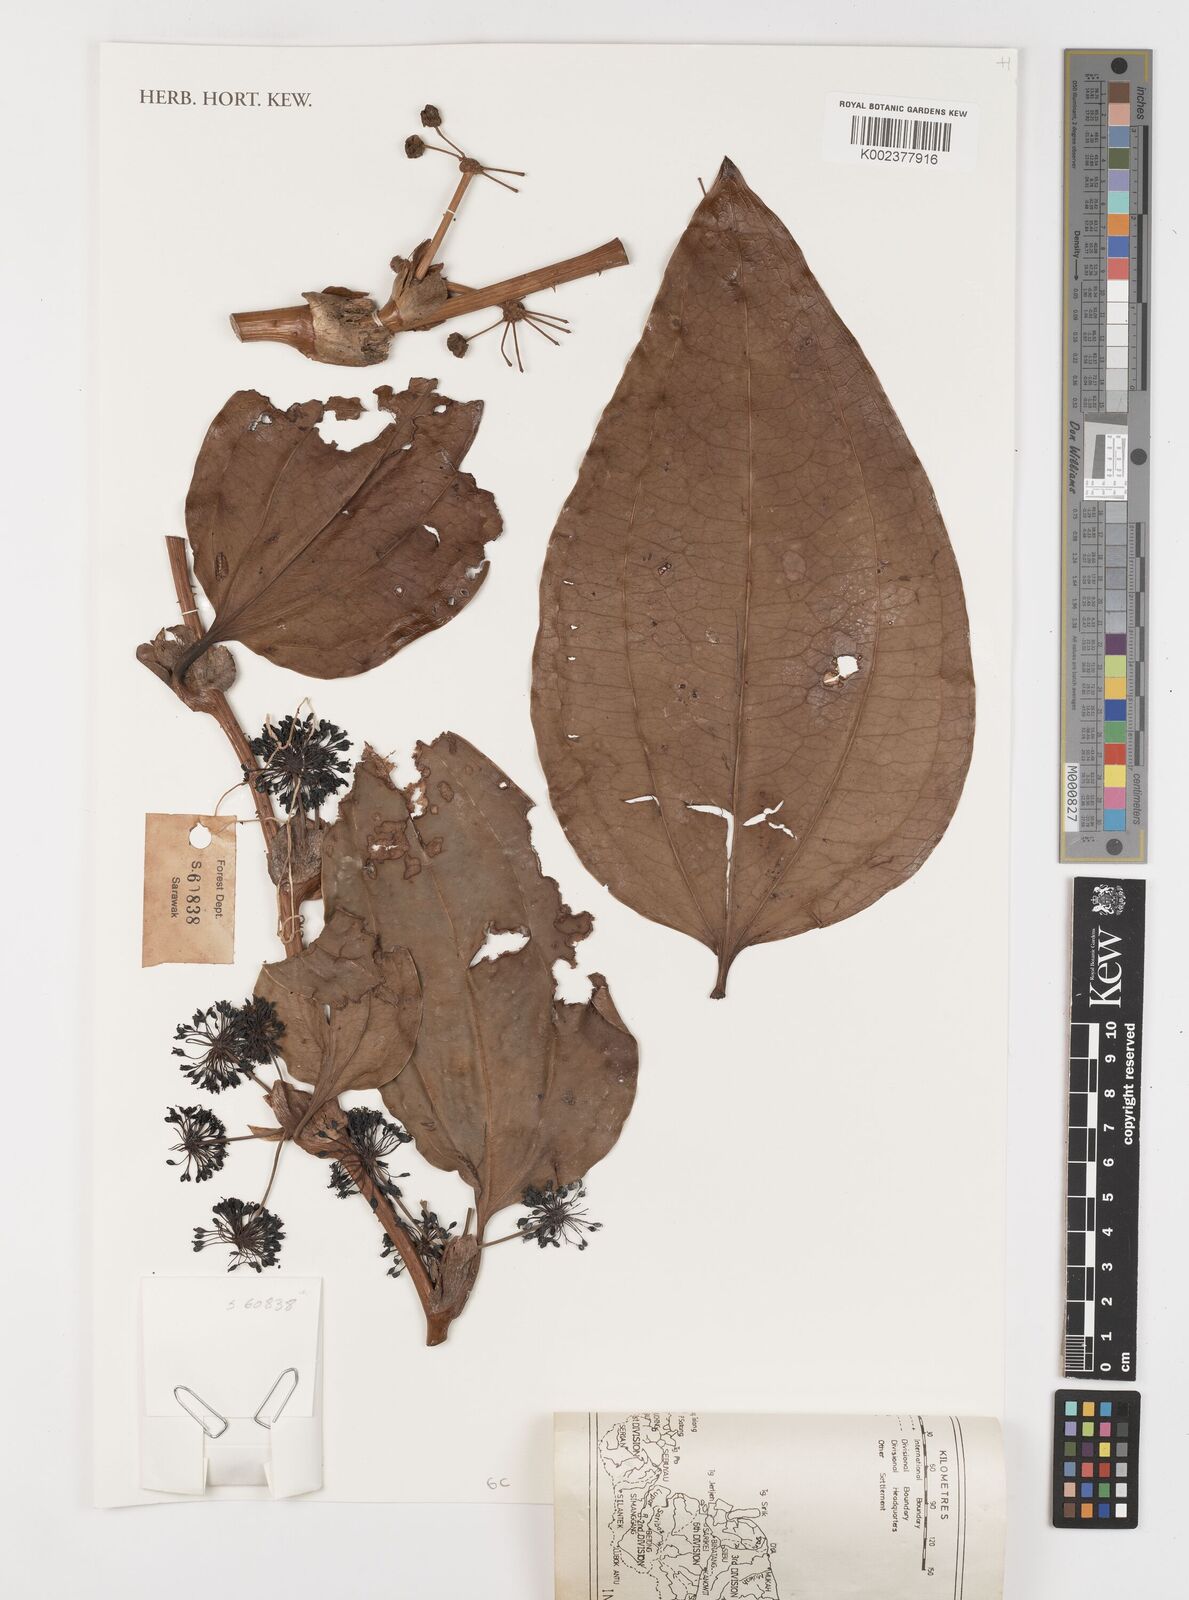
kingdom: Plantae
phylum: Tracheophyta
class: Liliopsida
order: Liliales
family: Smilacaceae
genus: Smilax
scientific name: Smilax
